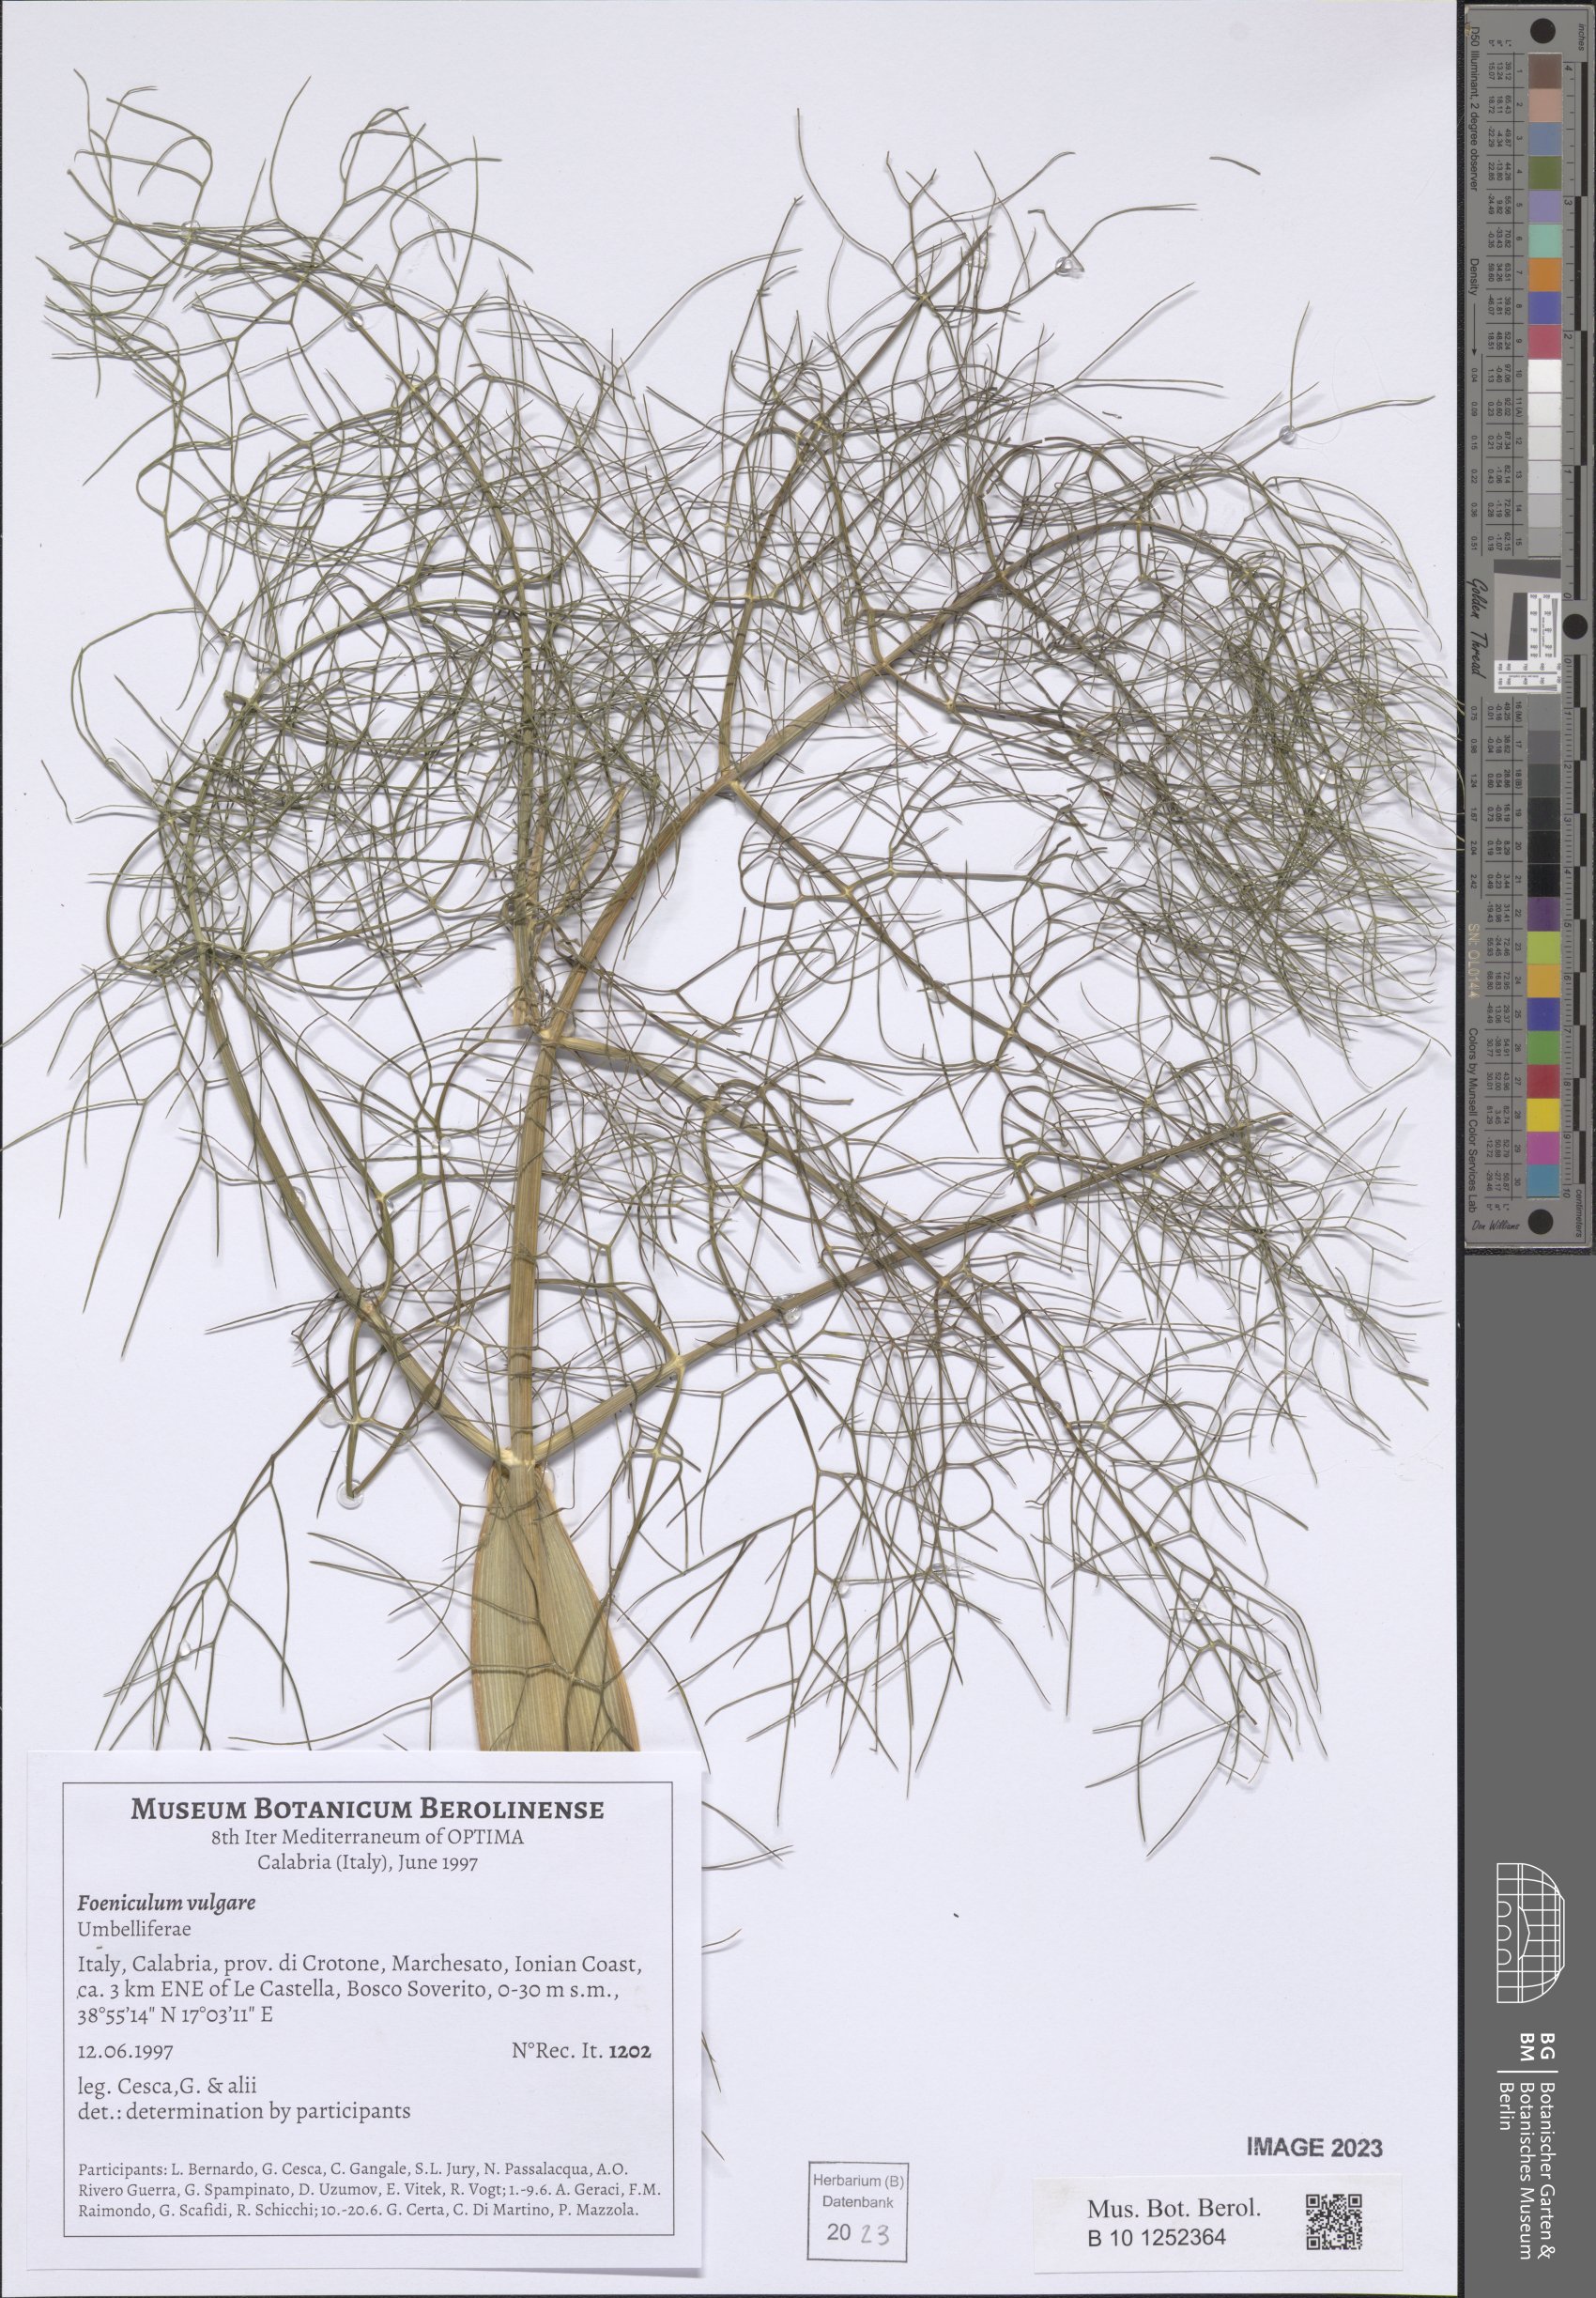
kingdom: Plantae
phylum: Tracheophyta
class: Magnoliopsida
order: Apiales
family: Apiaceae
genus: Foeniculum
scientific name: Foeniculum vulgare
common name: Fennel
